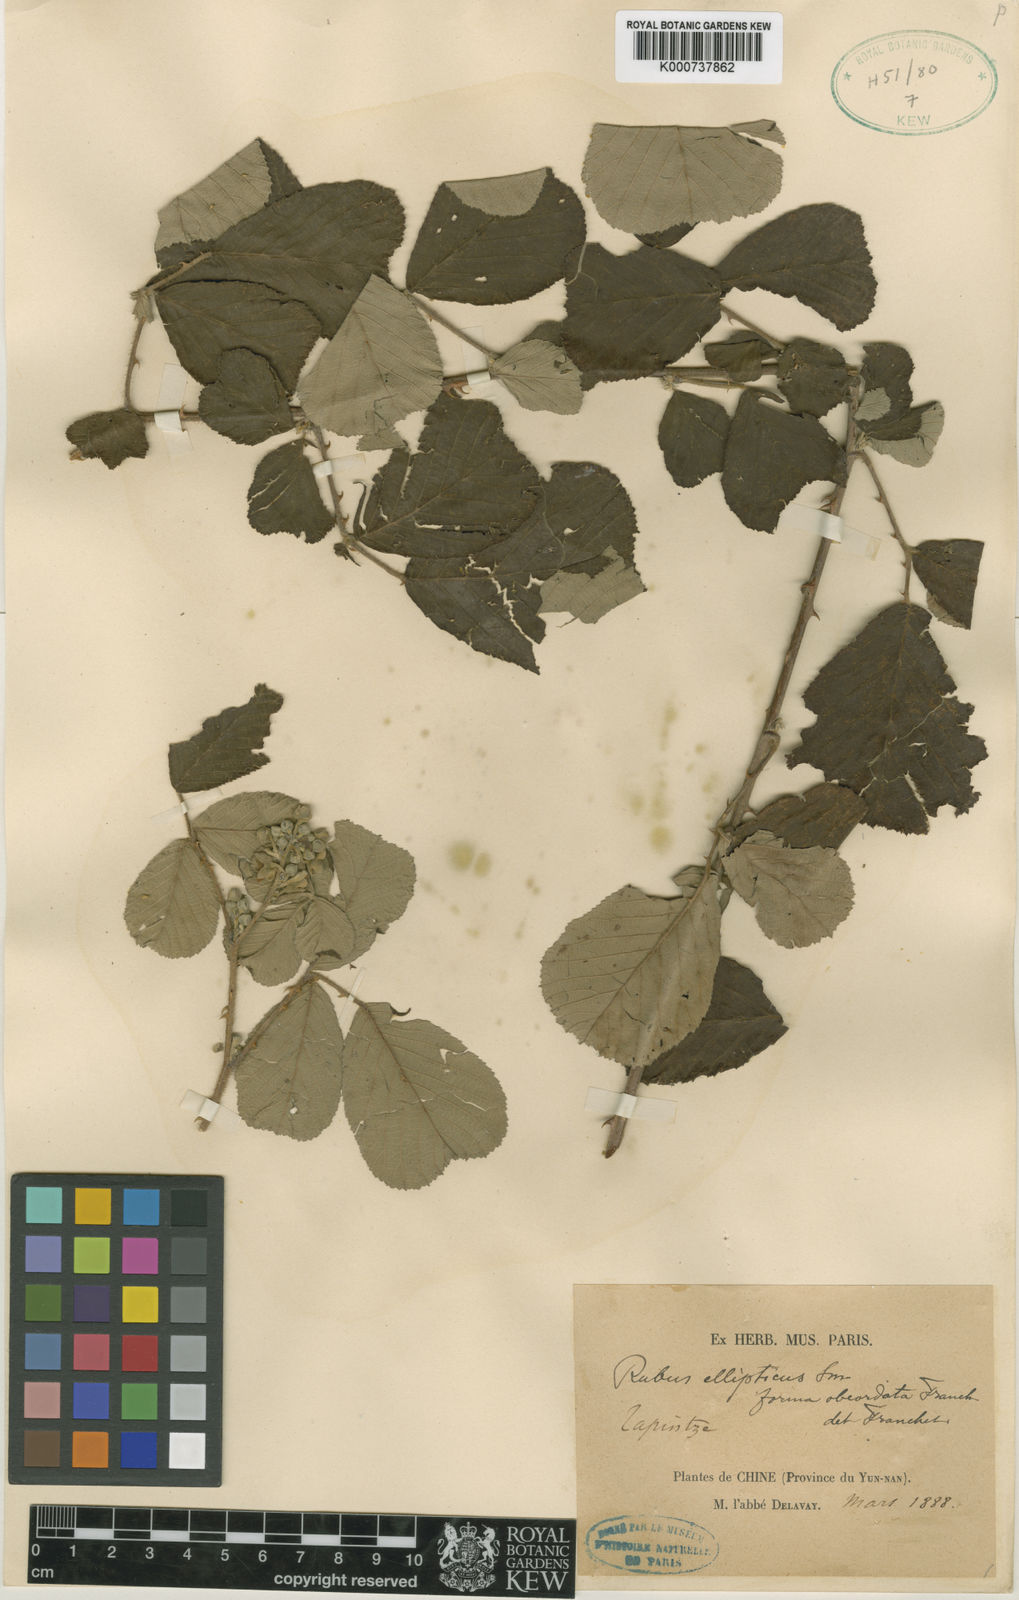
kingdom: Plantae
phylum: Tracheophyta
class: Magnoliopsida
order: Rosales
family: Rosaceae
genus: Rubus
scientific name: Rubus
